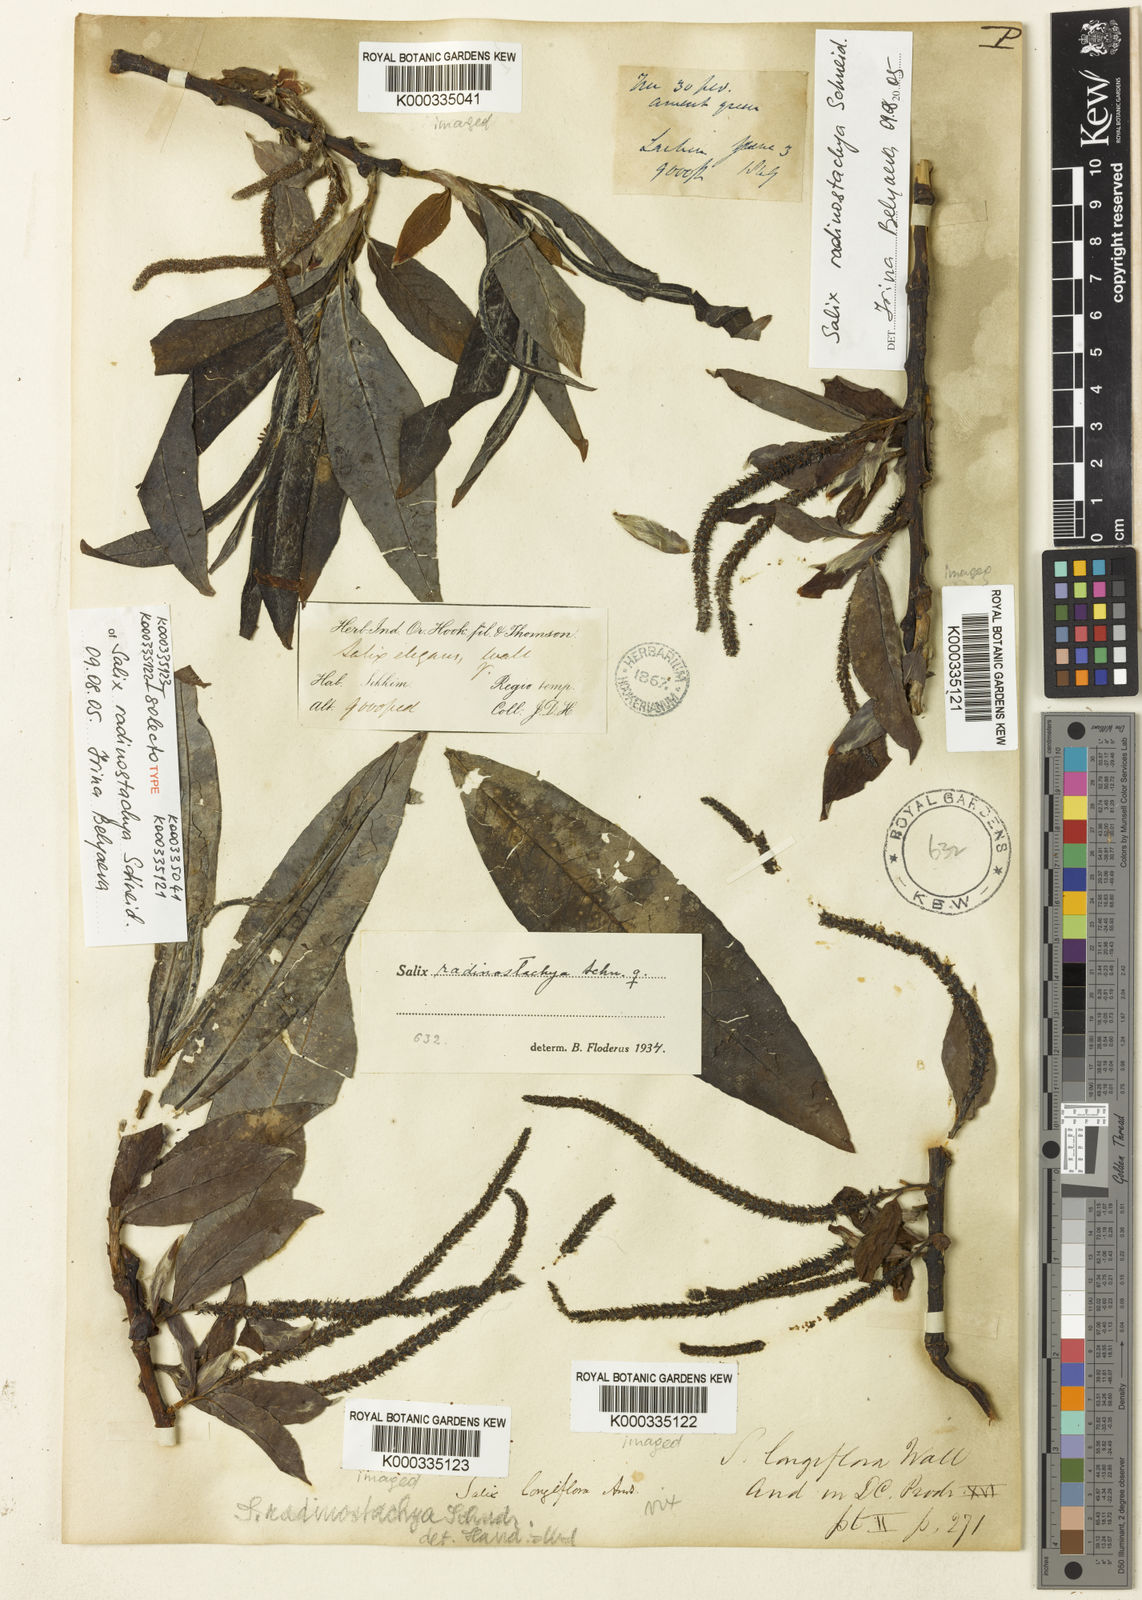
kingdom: Plantae
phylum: Tracheophyta
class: Magnoliopsida
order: Malpighiales
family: Salicaceae
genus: Salix
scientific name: Salix radinostachya
